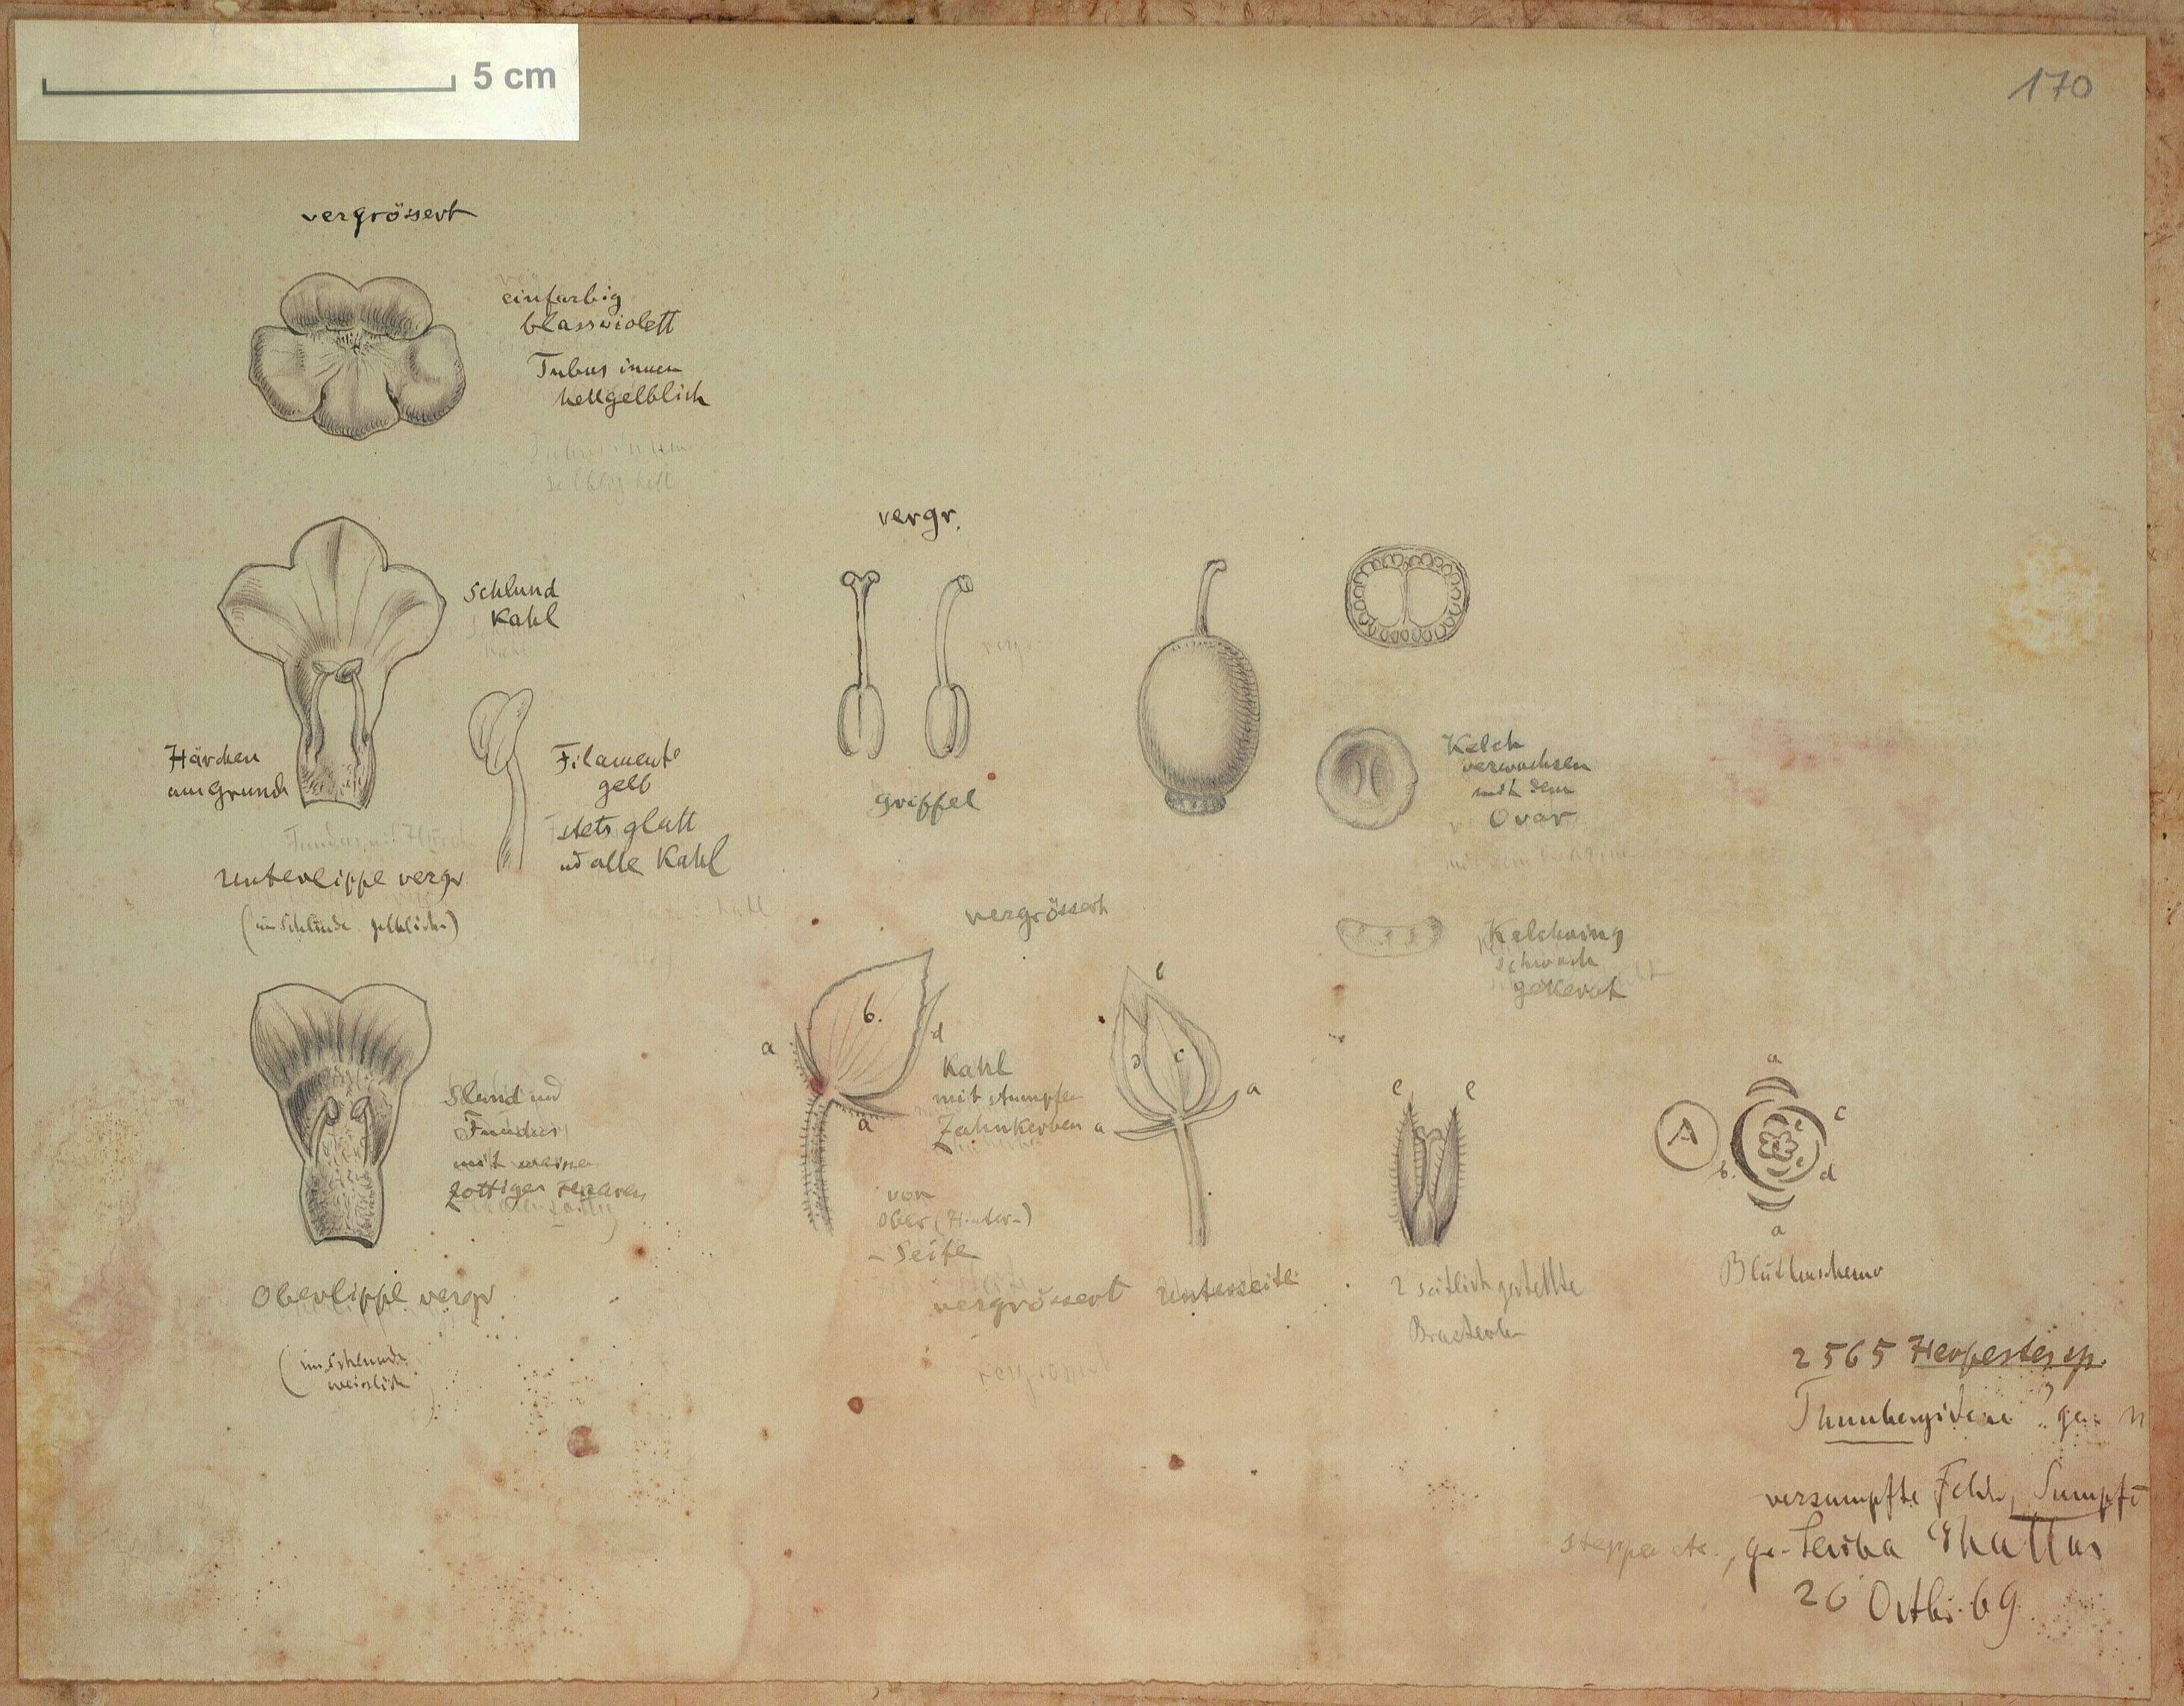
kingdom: Plantae
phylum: Tracheophyta
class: Magnoliopsida
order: Lamiales
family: Plantaginaceae
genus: Bacopa
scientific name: Bacopa
